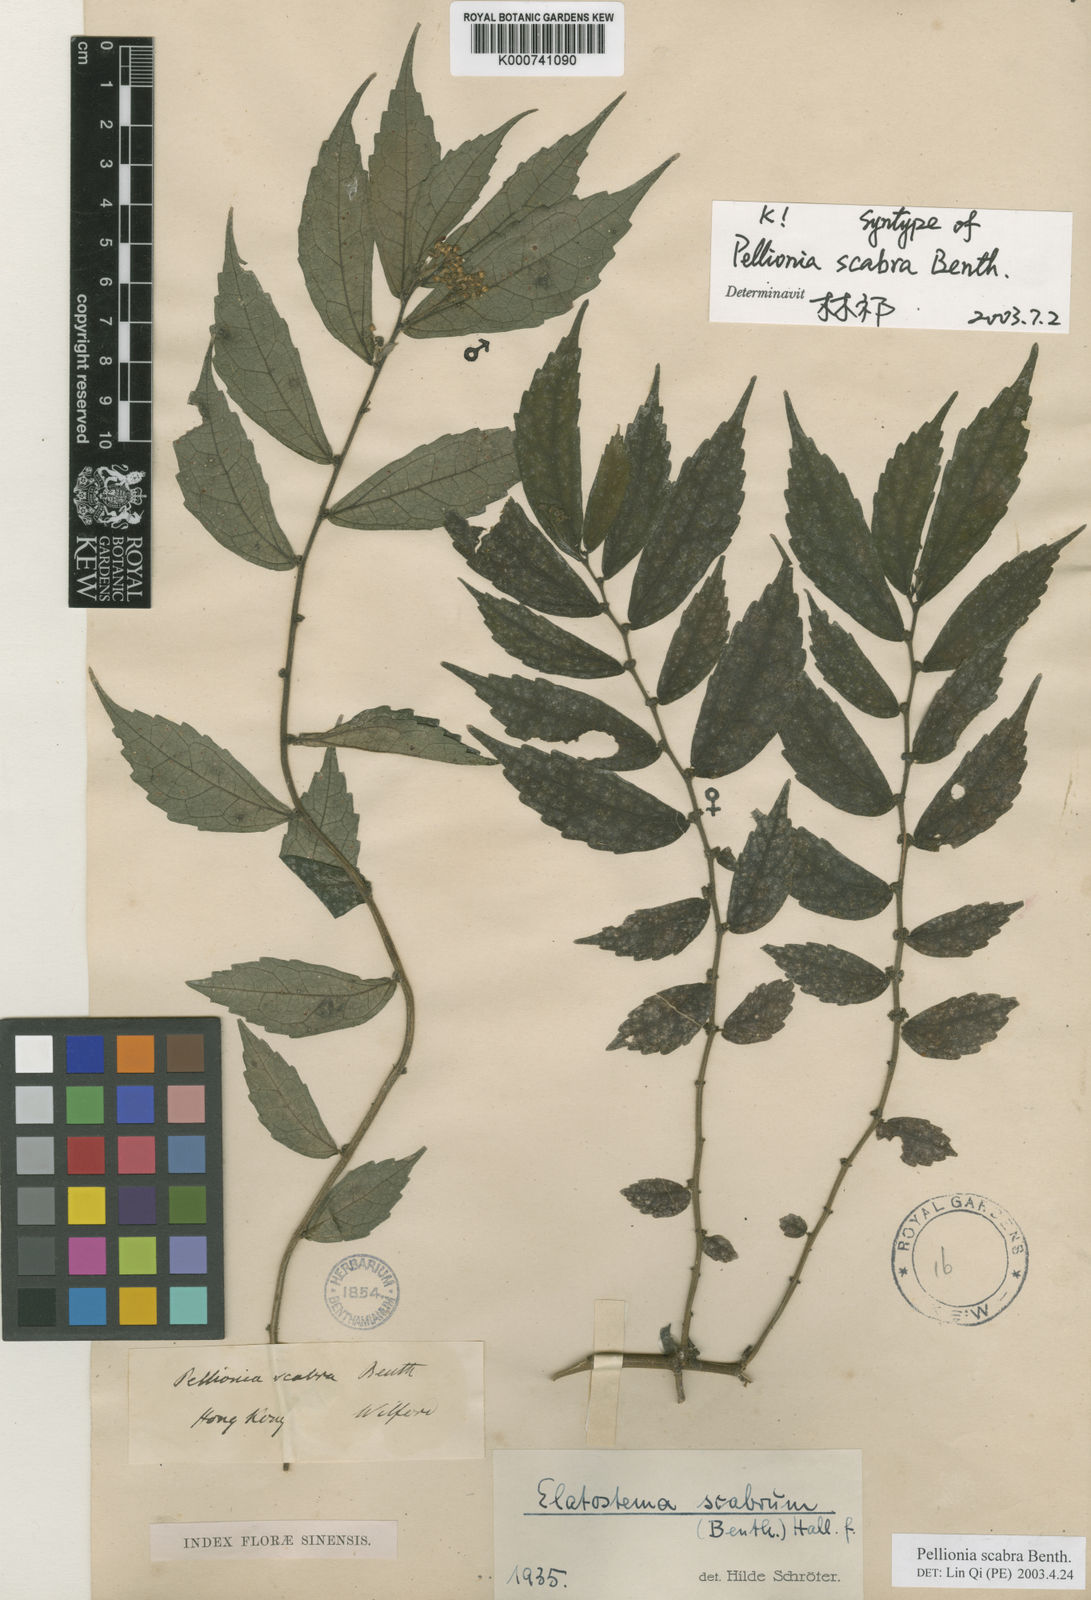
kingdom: Plantae
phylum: Tracheophyta
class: Magnoliopsida
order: Rosales
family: Urticaceae
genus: Elatostema
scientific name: Elatostema scabrum
